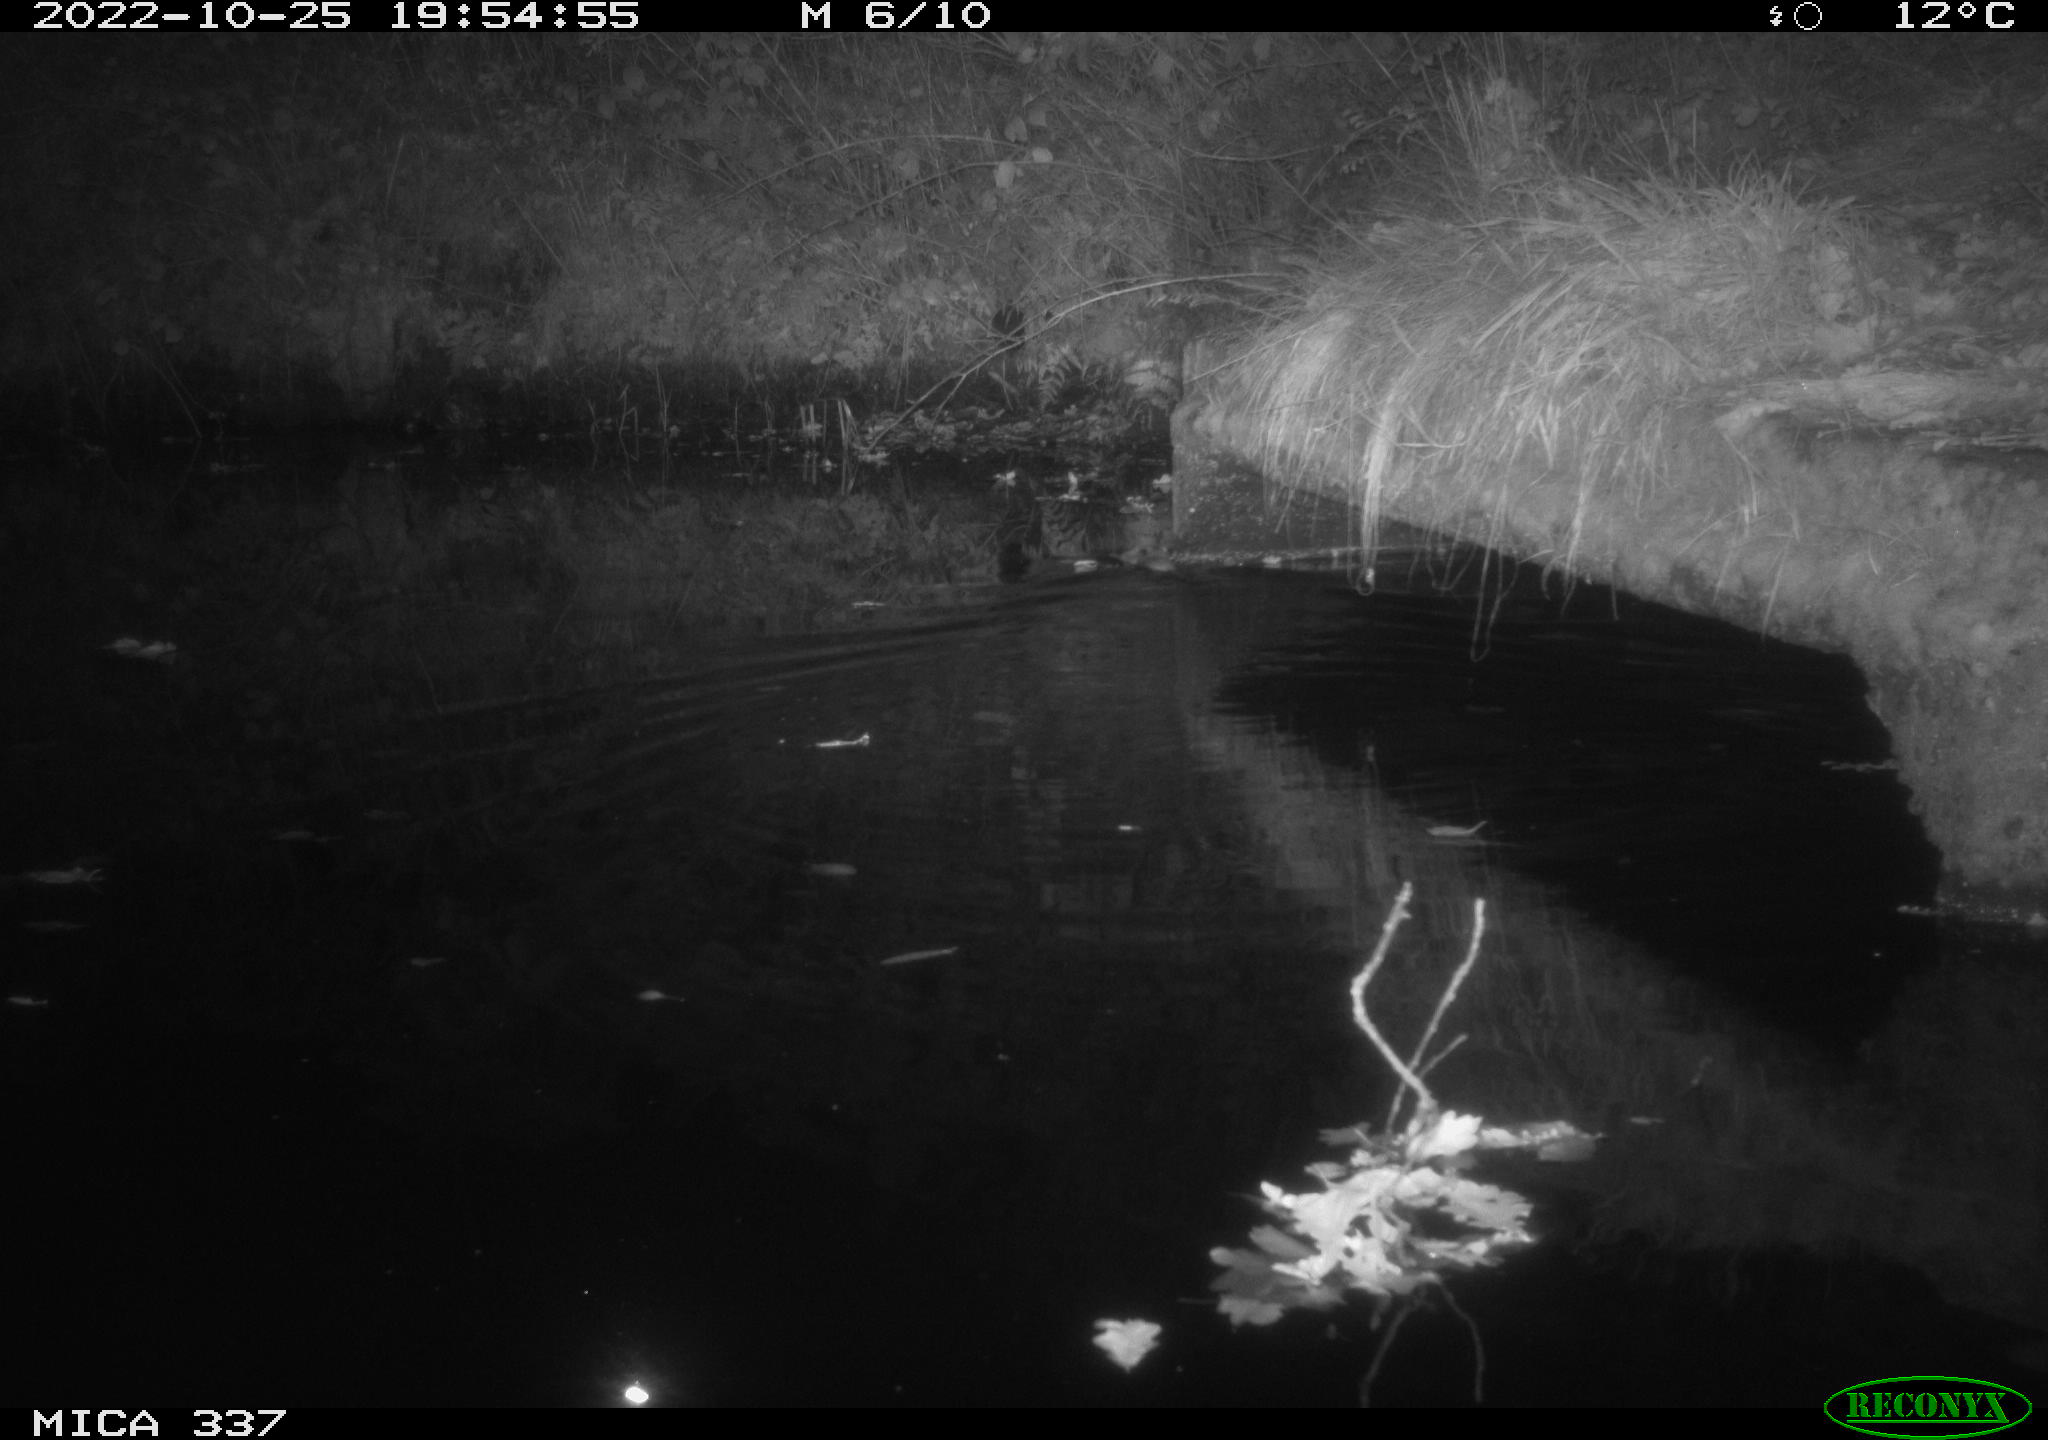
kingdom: Animalia
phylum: Chordata
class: Mammalia
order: Rodentia
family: Muridae
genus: Rattus
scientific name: Rattus norvegicus
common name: Brown rat
